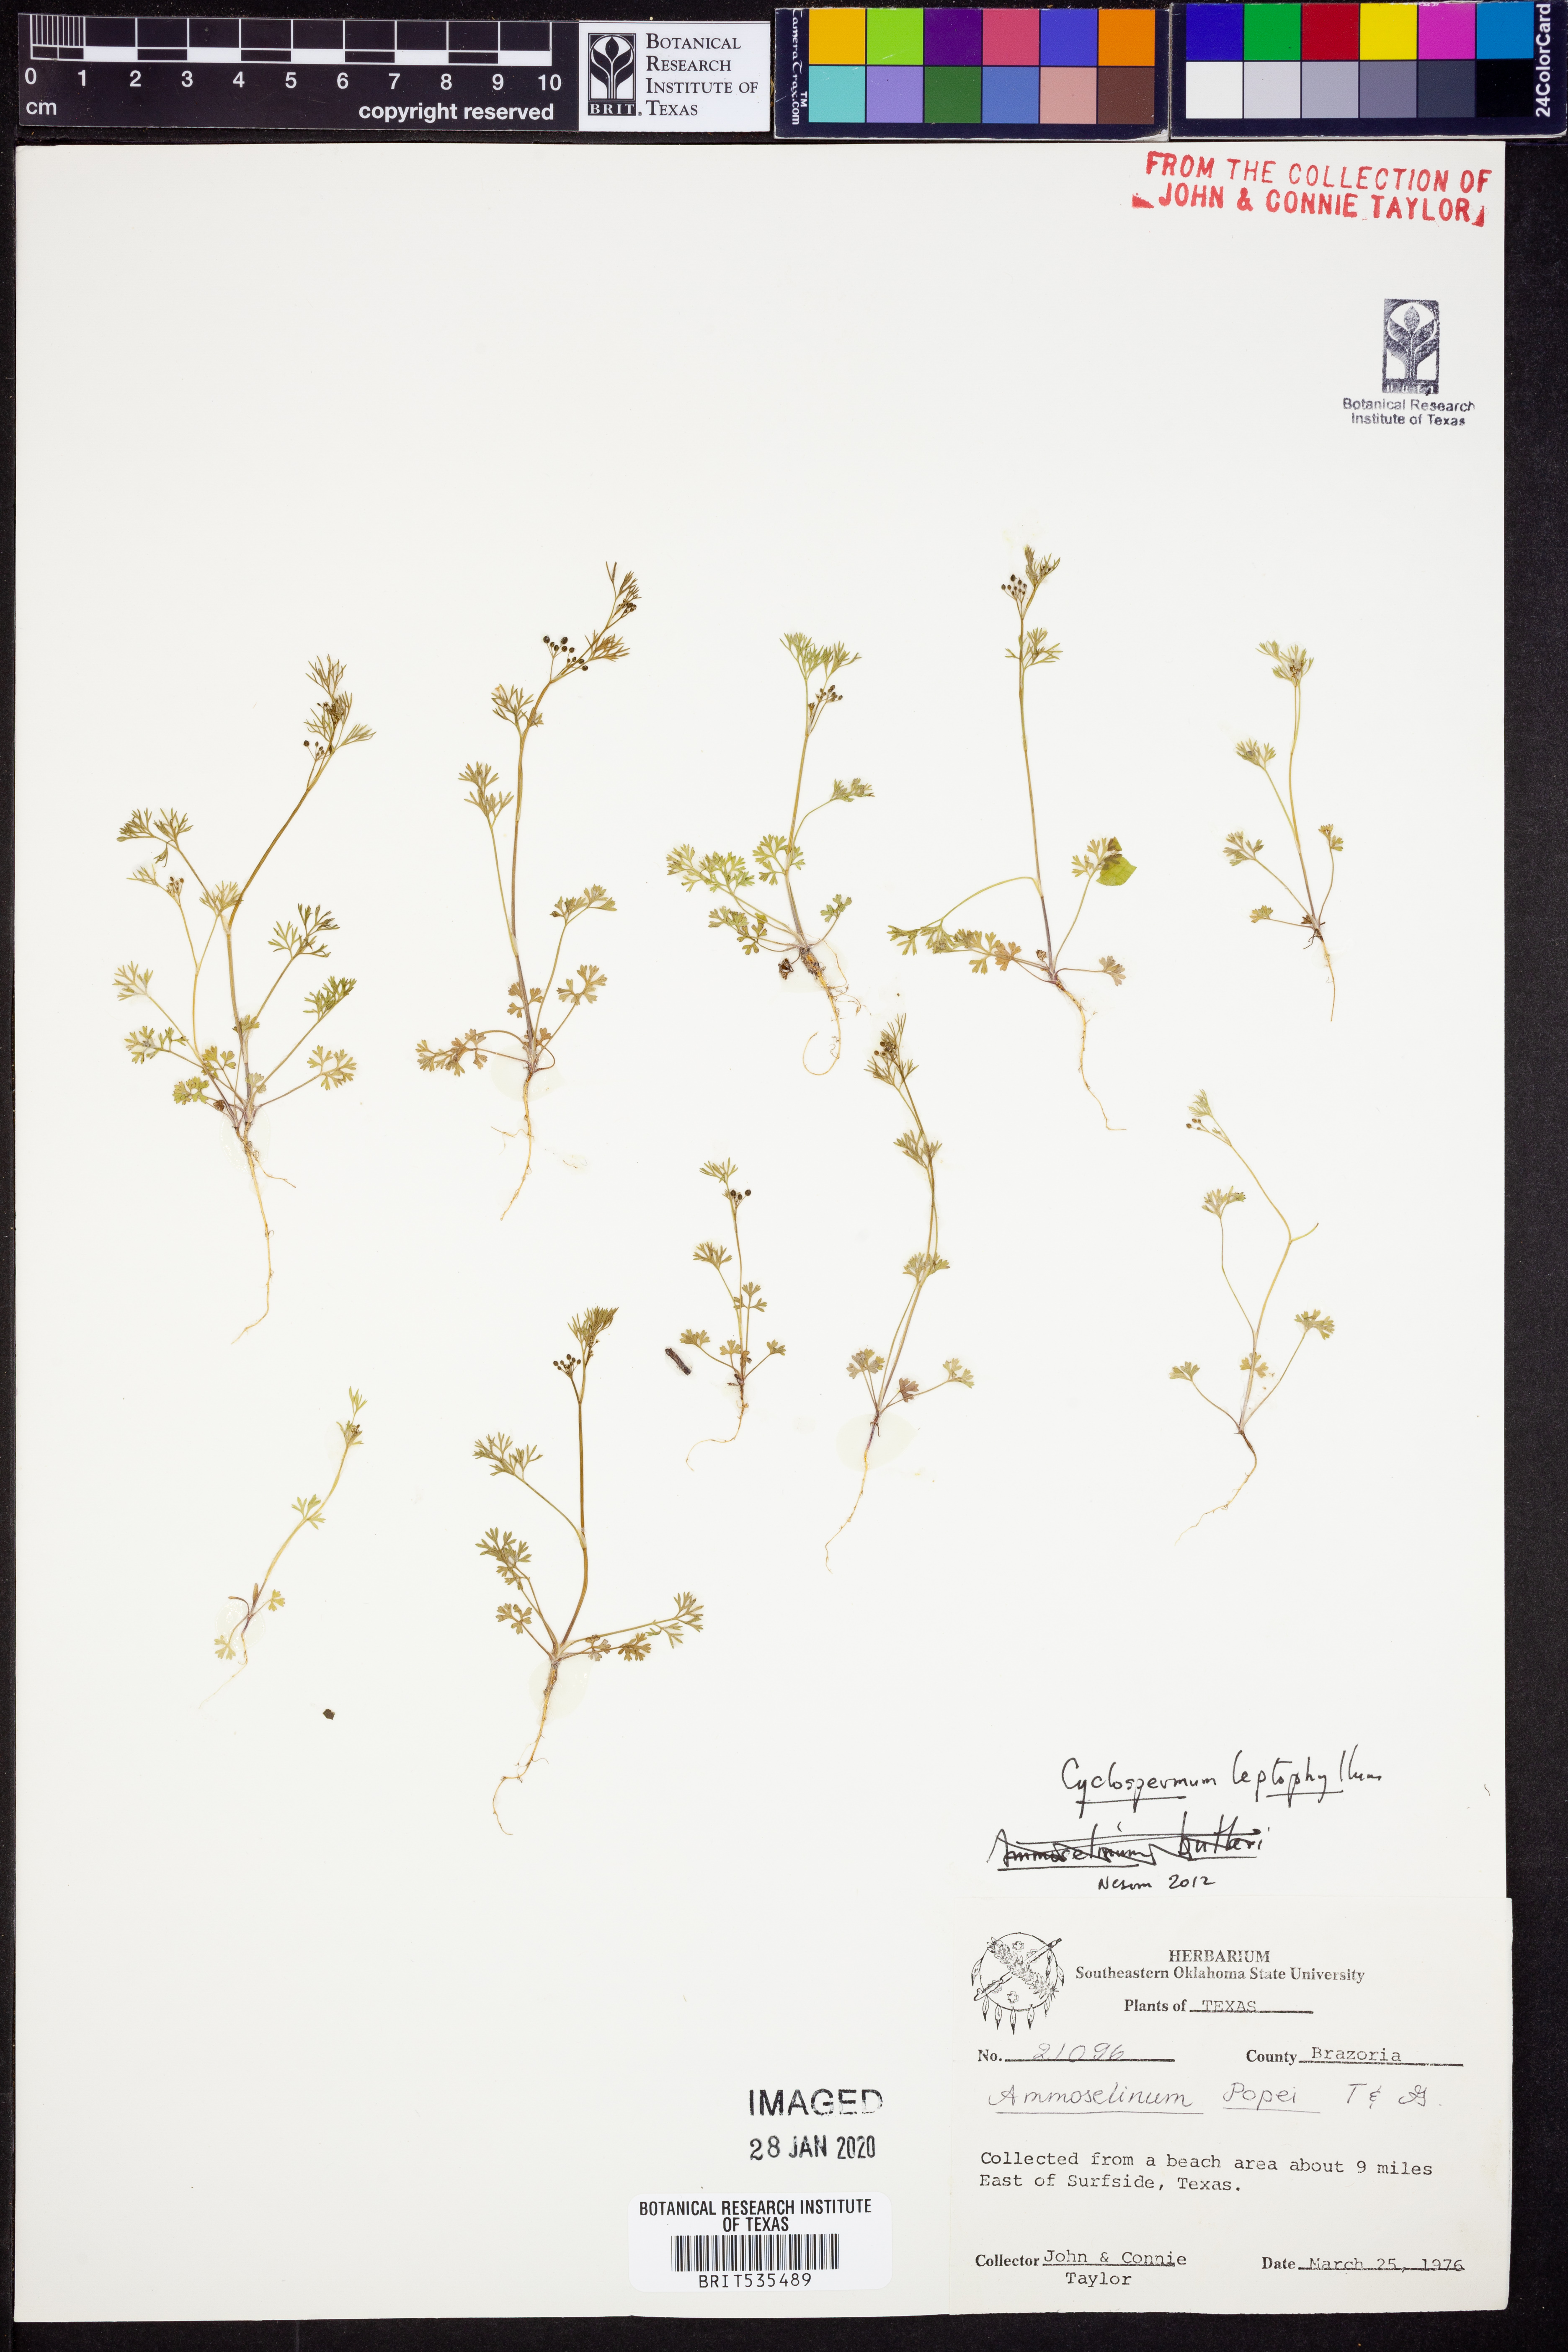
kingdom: Plantae
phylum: Tracheophyta
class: Magnoliopsida
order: Apiales
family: Apiaceae
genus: Cyclospermum
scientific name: Cyclospermum leptophyllum
